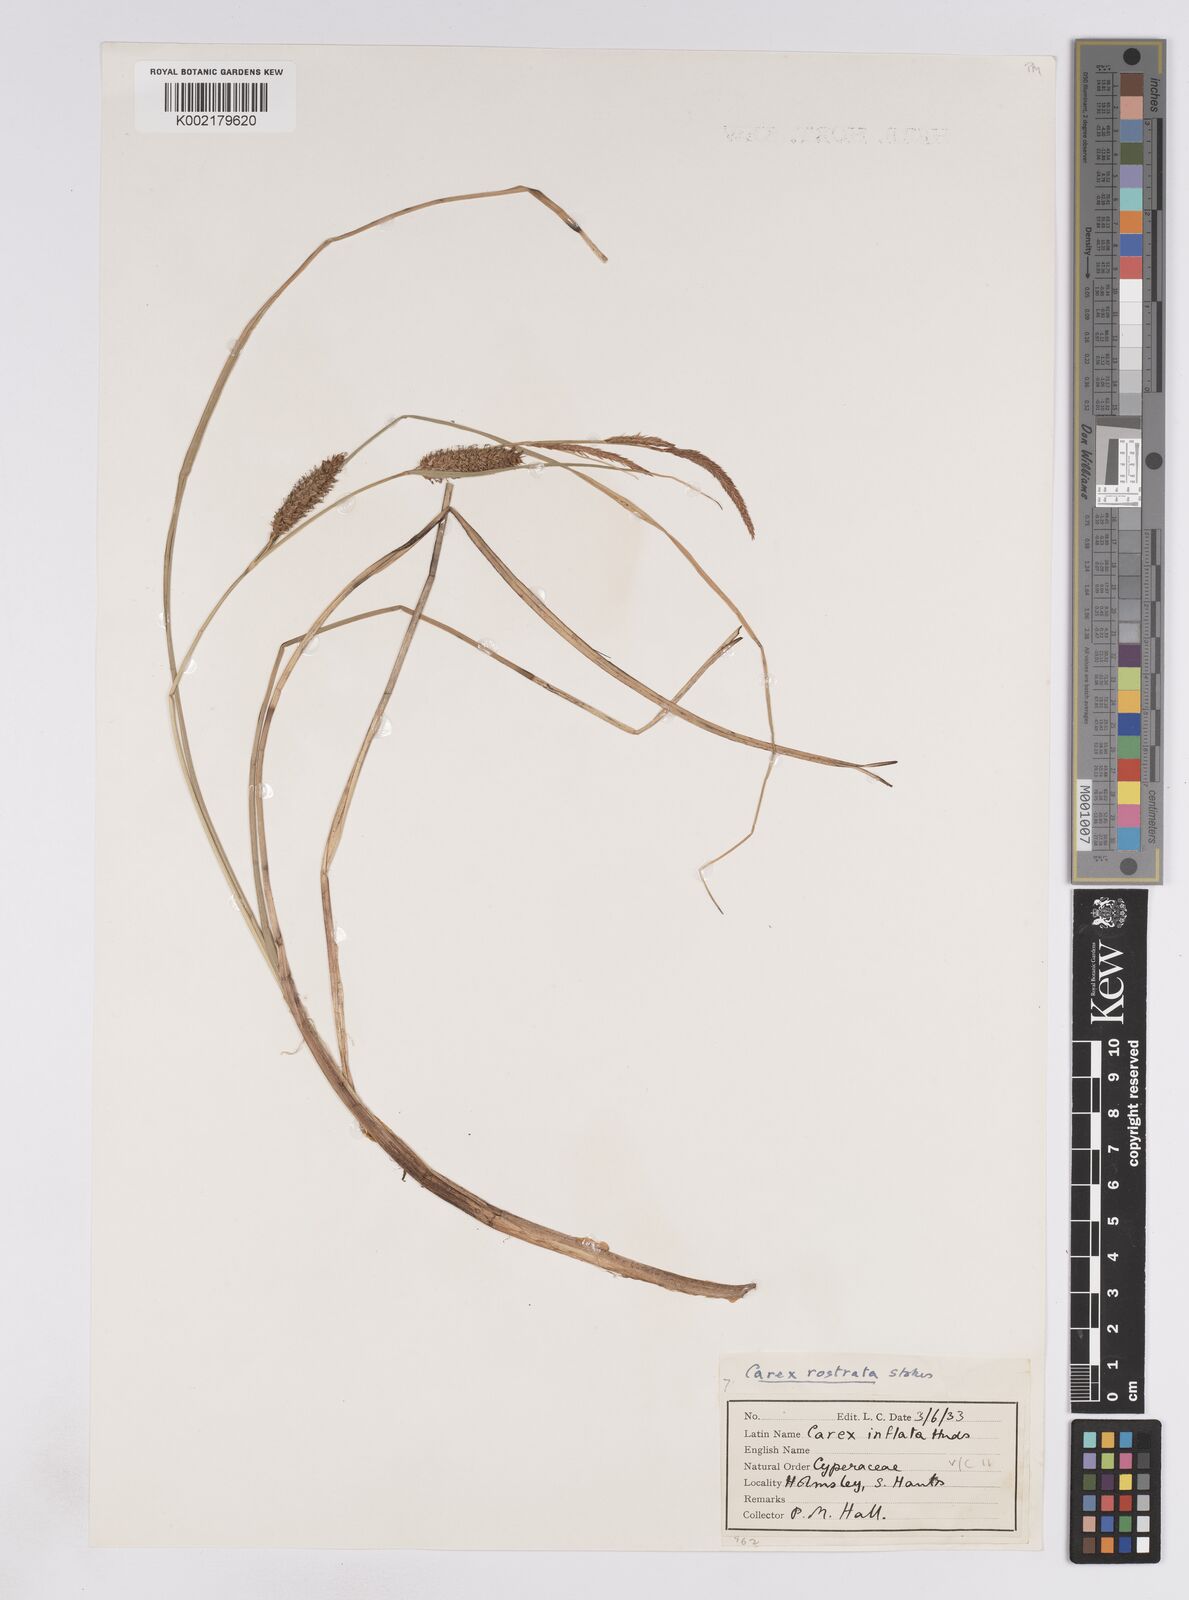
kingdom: Plantae
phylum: Tracheophyta
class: Liliopsida
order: Poales
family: Cyperaceae
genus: Carex
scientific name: Carex rostrata
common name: Bottle sedge
